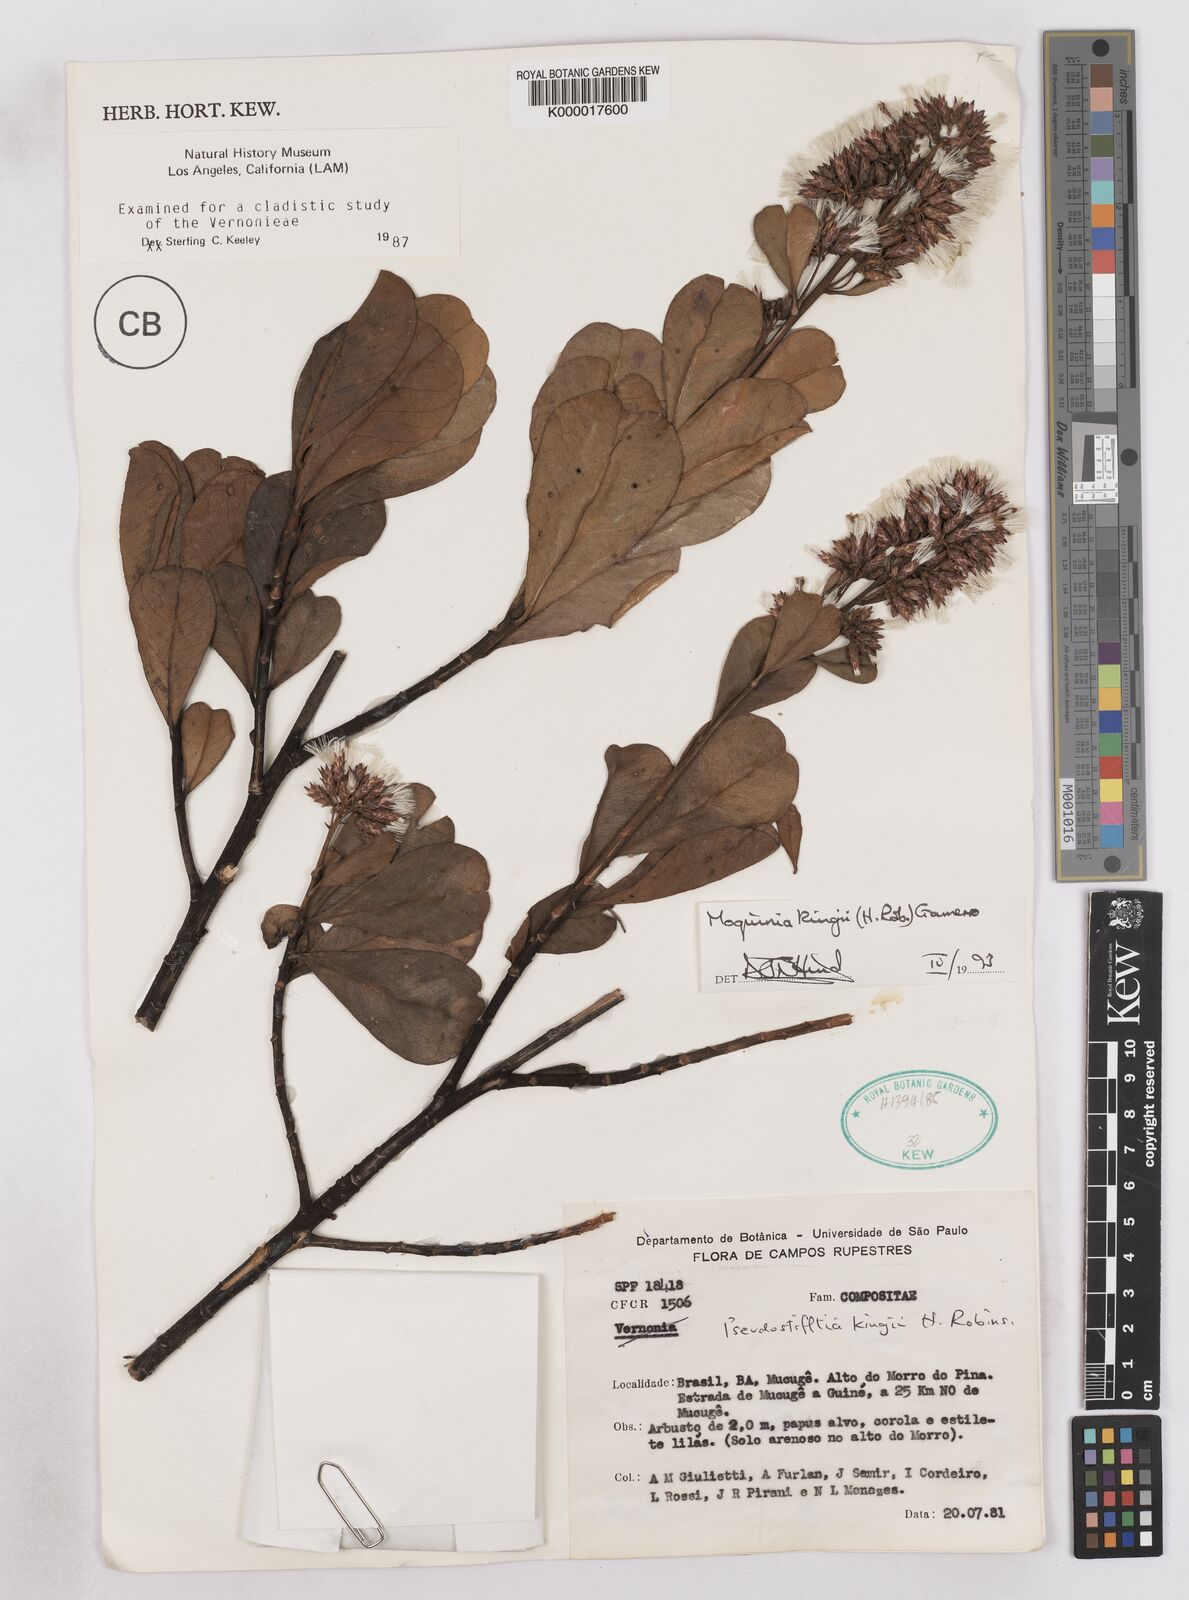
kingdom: Plantae
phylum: Tracheophyta
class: Magnoliopsida
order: Asterales
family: Asteraceae
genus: Pseudostifftia
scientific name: Pseudostifftia kingii
